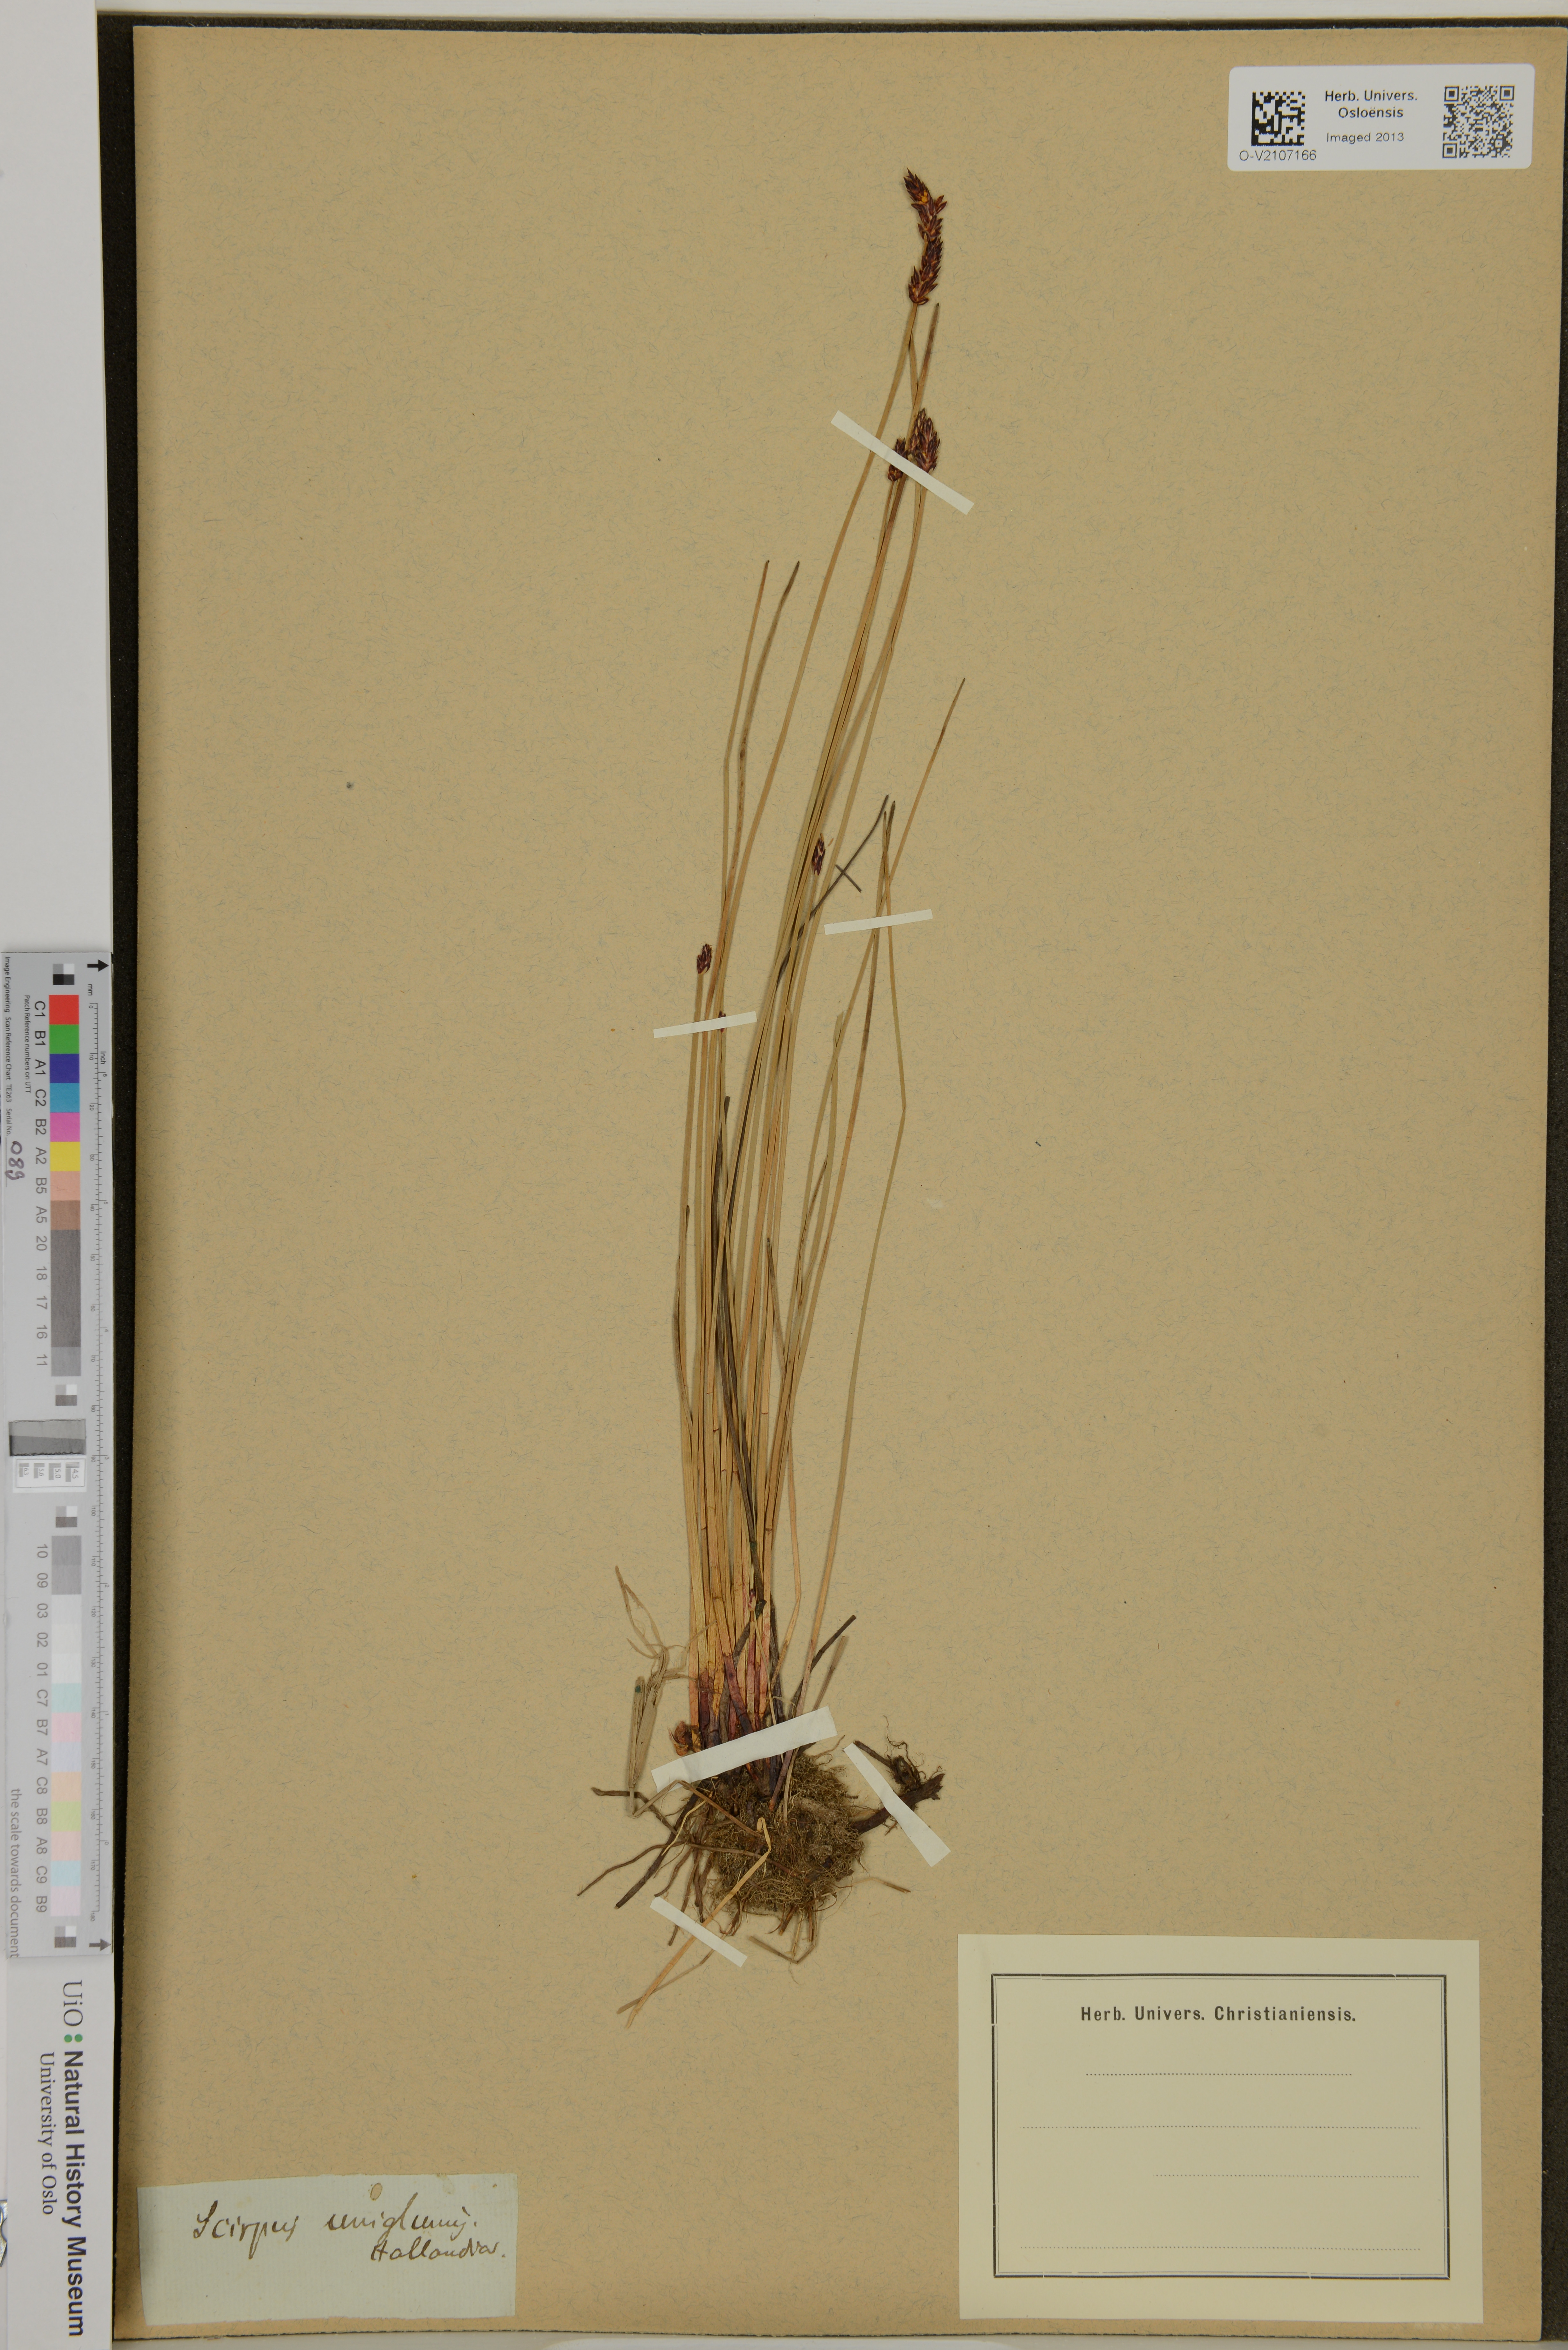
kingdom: Plantae
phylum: Tracheophyta
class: Liliopsida
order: Poales
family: Cyperaceae
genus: Eleocharis
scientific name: Eleocharis uniglumis
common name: Slender spike-rush
